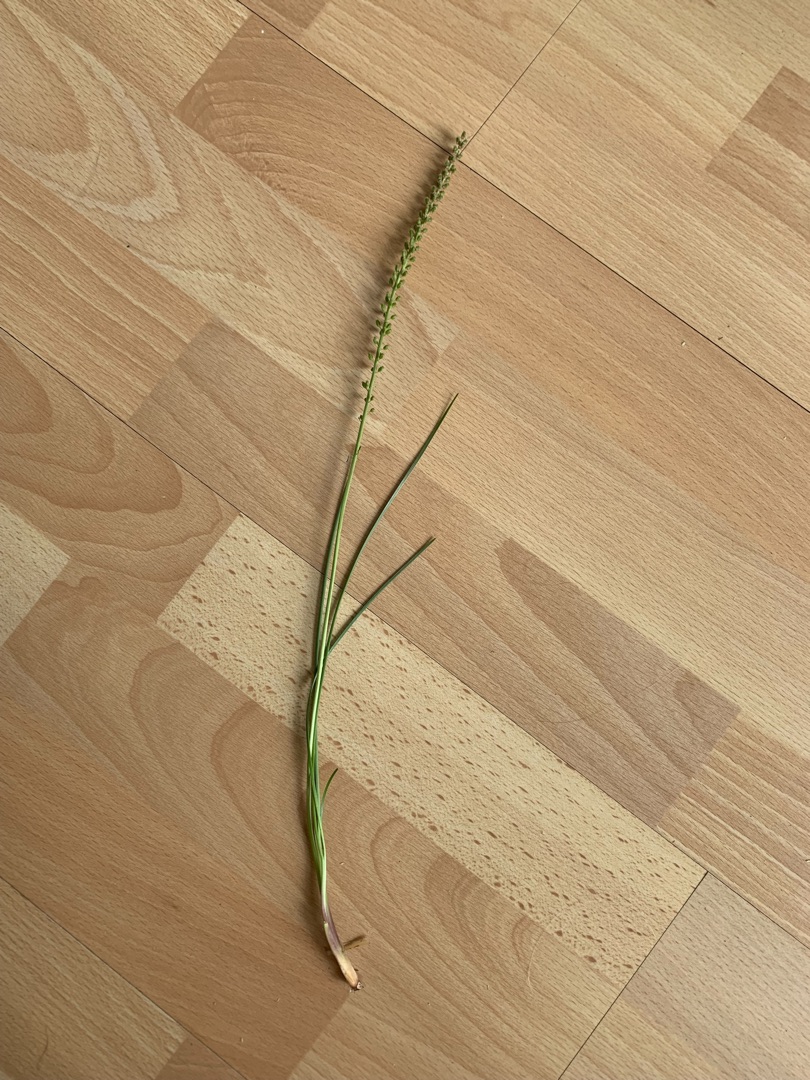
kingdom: Plantae
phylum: Tracheophyta
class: Liliopsida
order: Alismatales
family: Juncaginaceae
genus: Triglochin
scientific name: Triglochin maritima
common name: Strand-trehage
